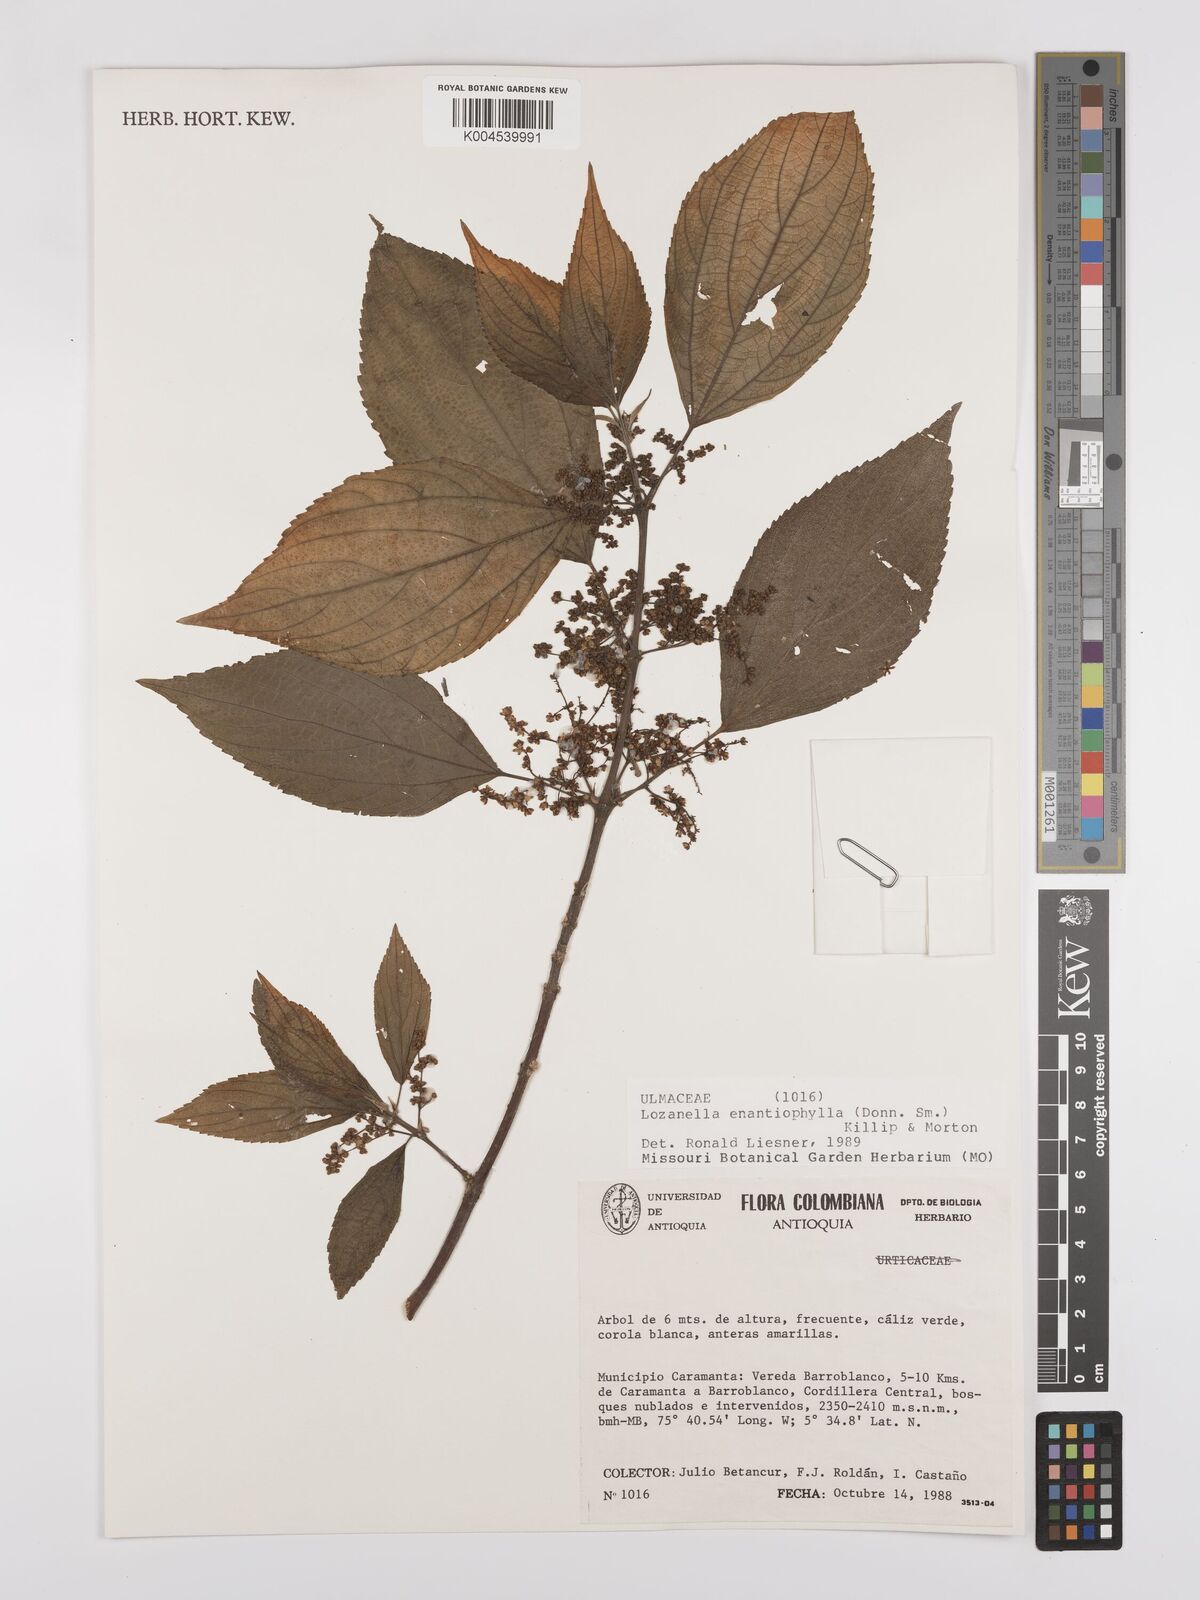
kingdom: Plantae
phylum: Tracheophyta
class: Magnoliopsida
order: Rosales
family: Cannabaceae
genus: Lozanella
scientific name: Lozanella enantiophylla
